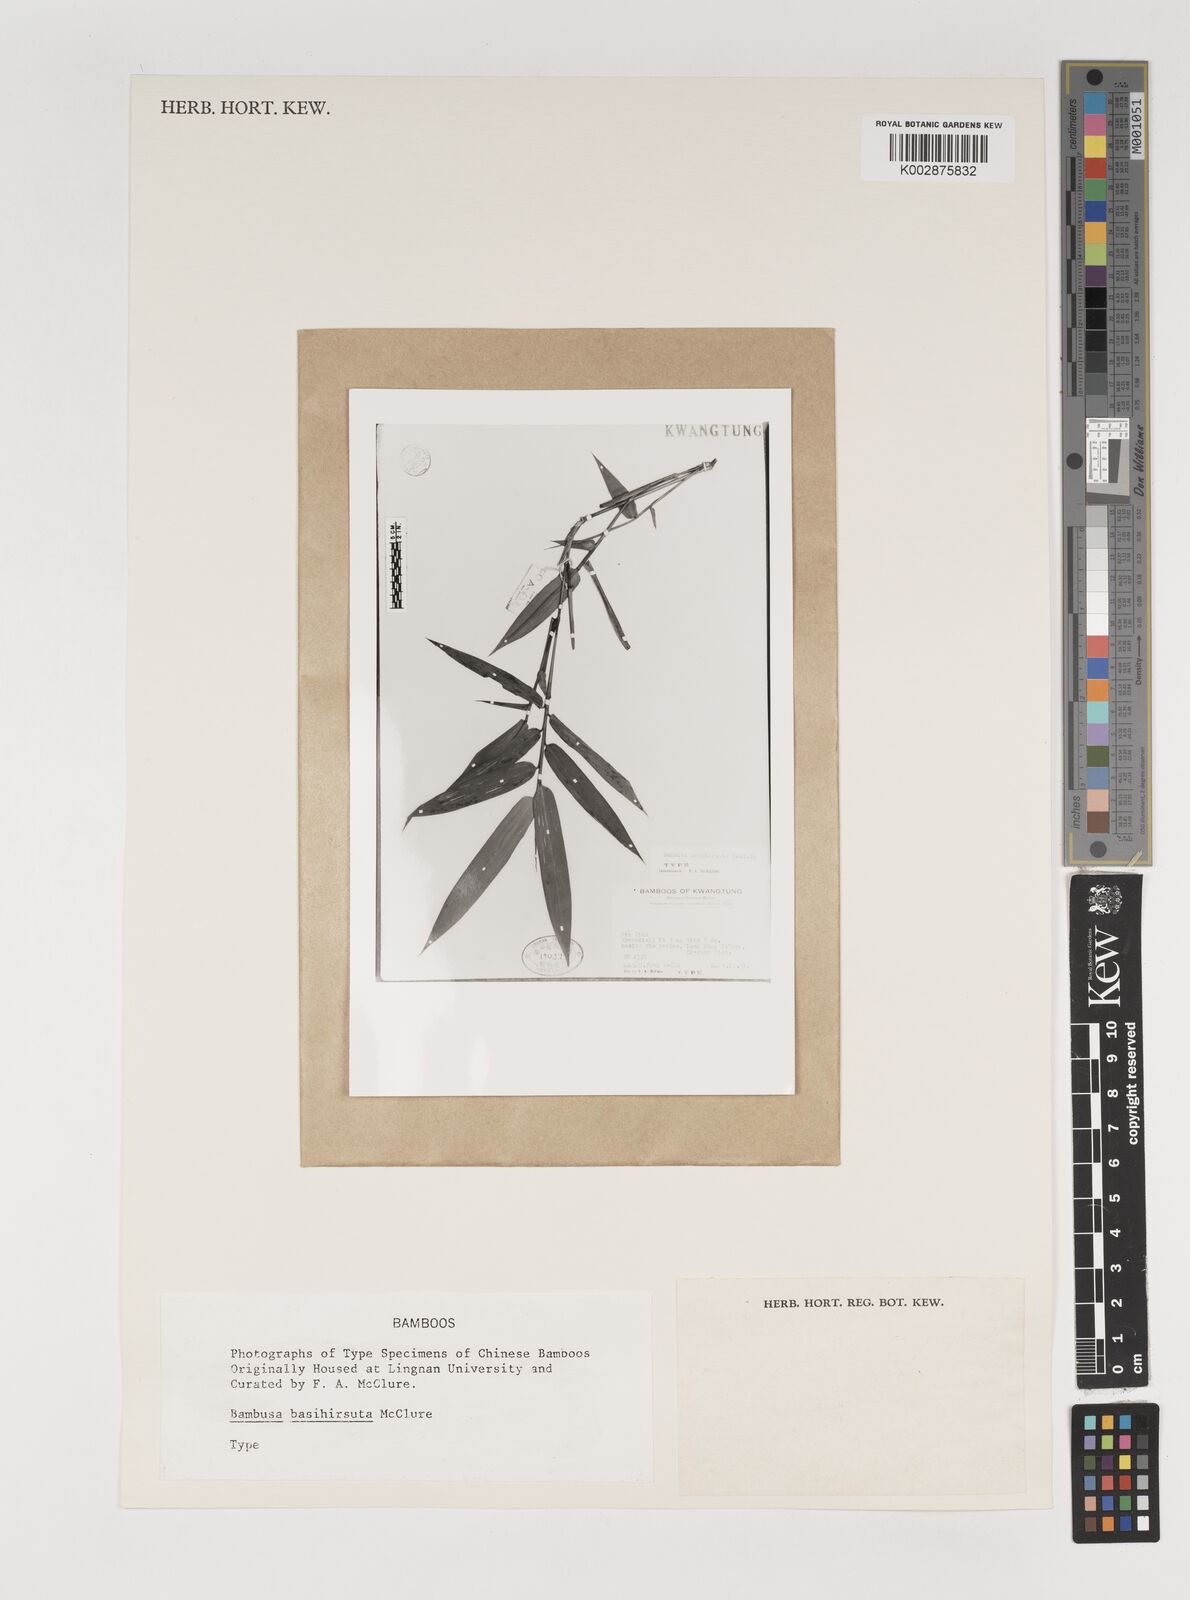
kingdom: Plantae
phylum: Tracheophyta
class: Liliopsida
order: Poales
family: Poaceae
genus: Bambusa
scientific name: Bambusa basihirsuta
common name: Pin bamboo
